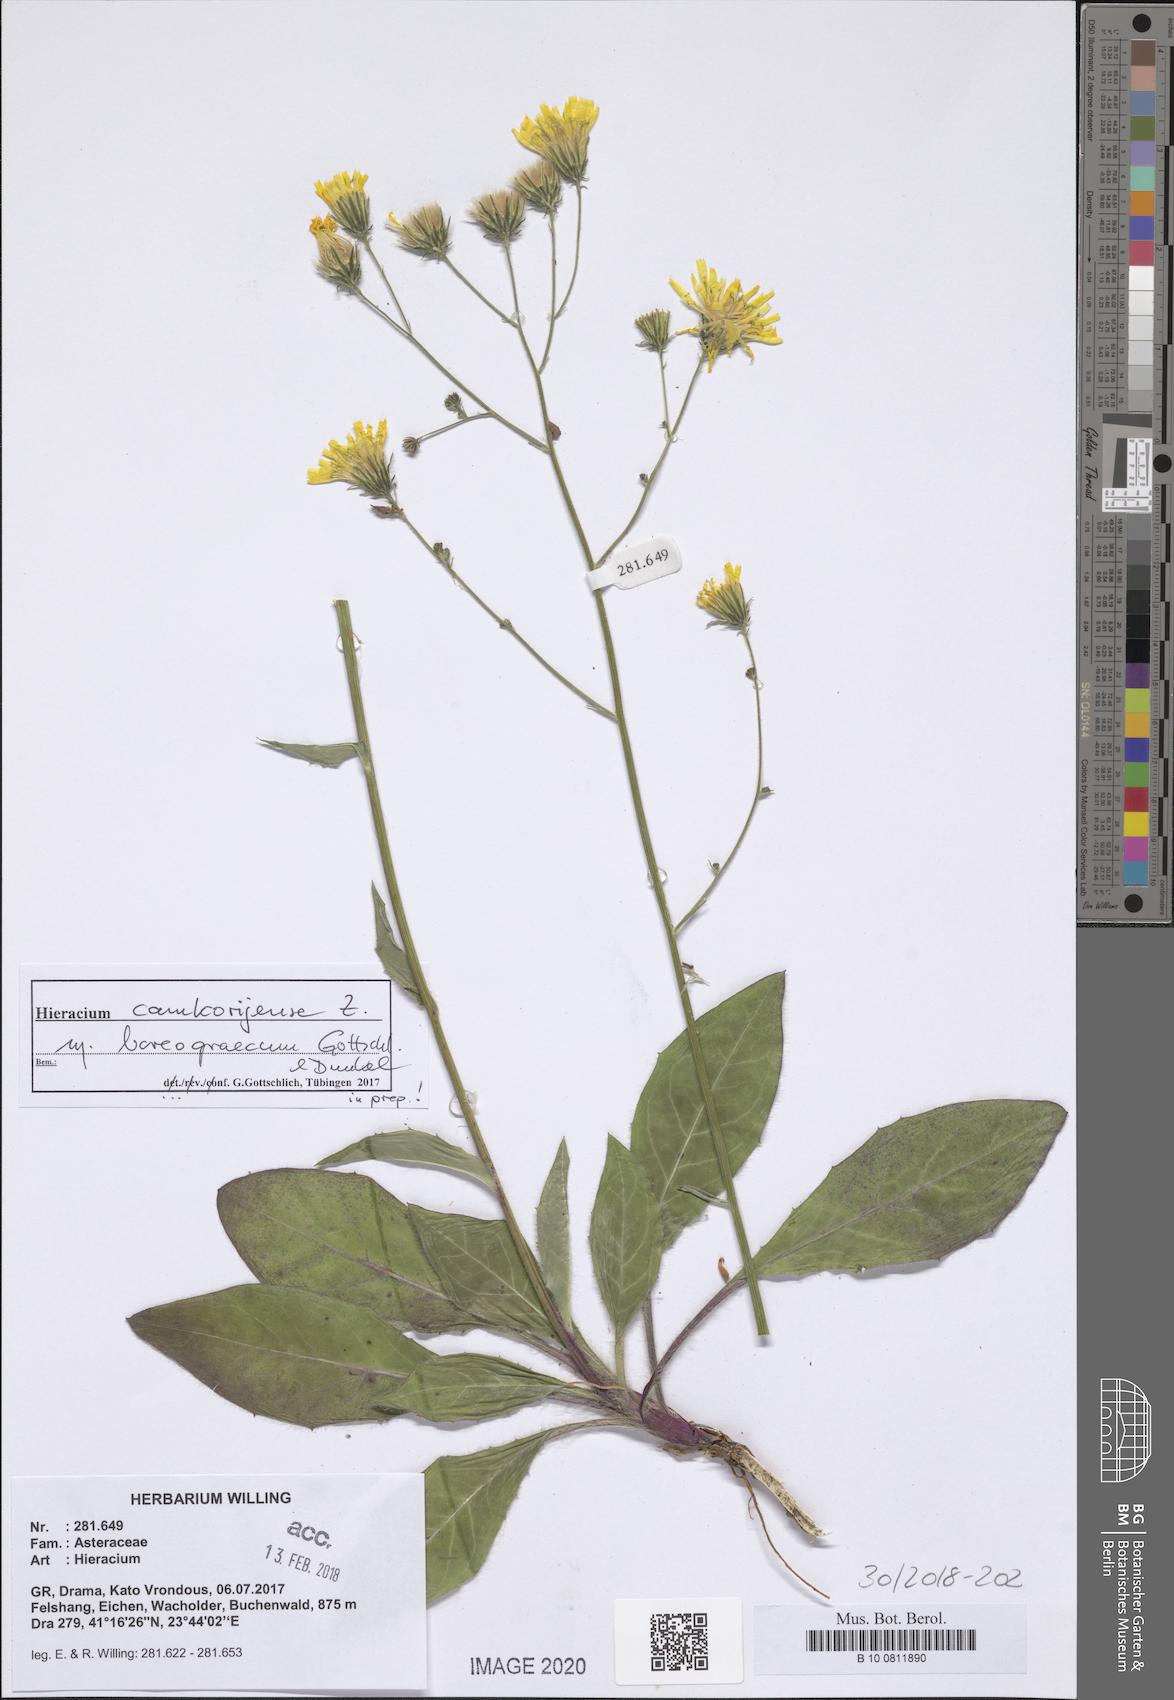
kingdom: Plantae
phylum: Tracheophyta
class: Magnoliopsida
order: Asterales
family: Asteraceae
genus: Hieracium
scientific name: Hieracium camkorijense
